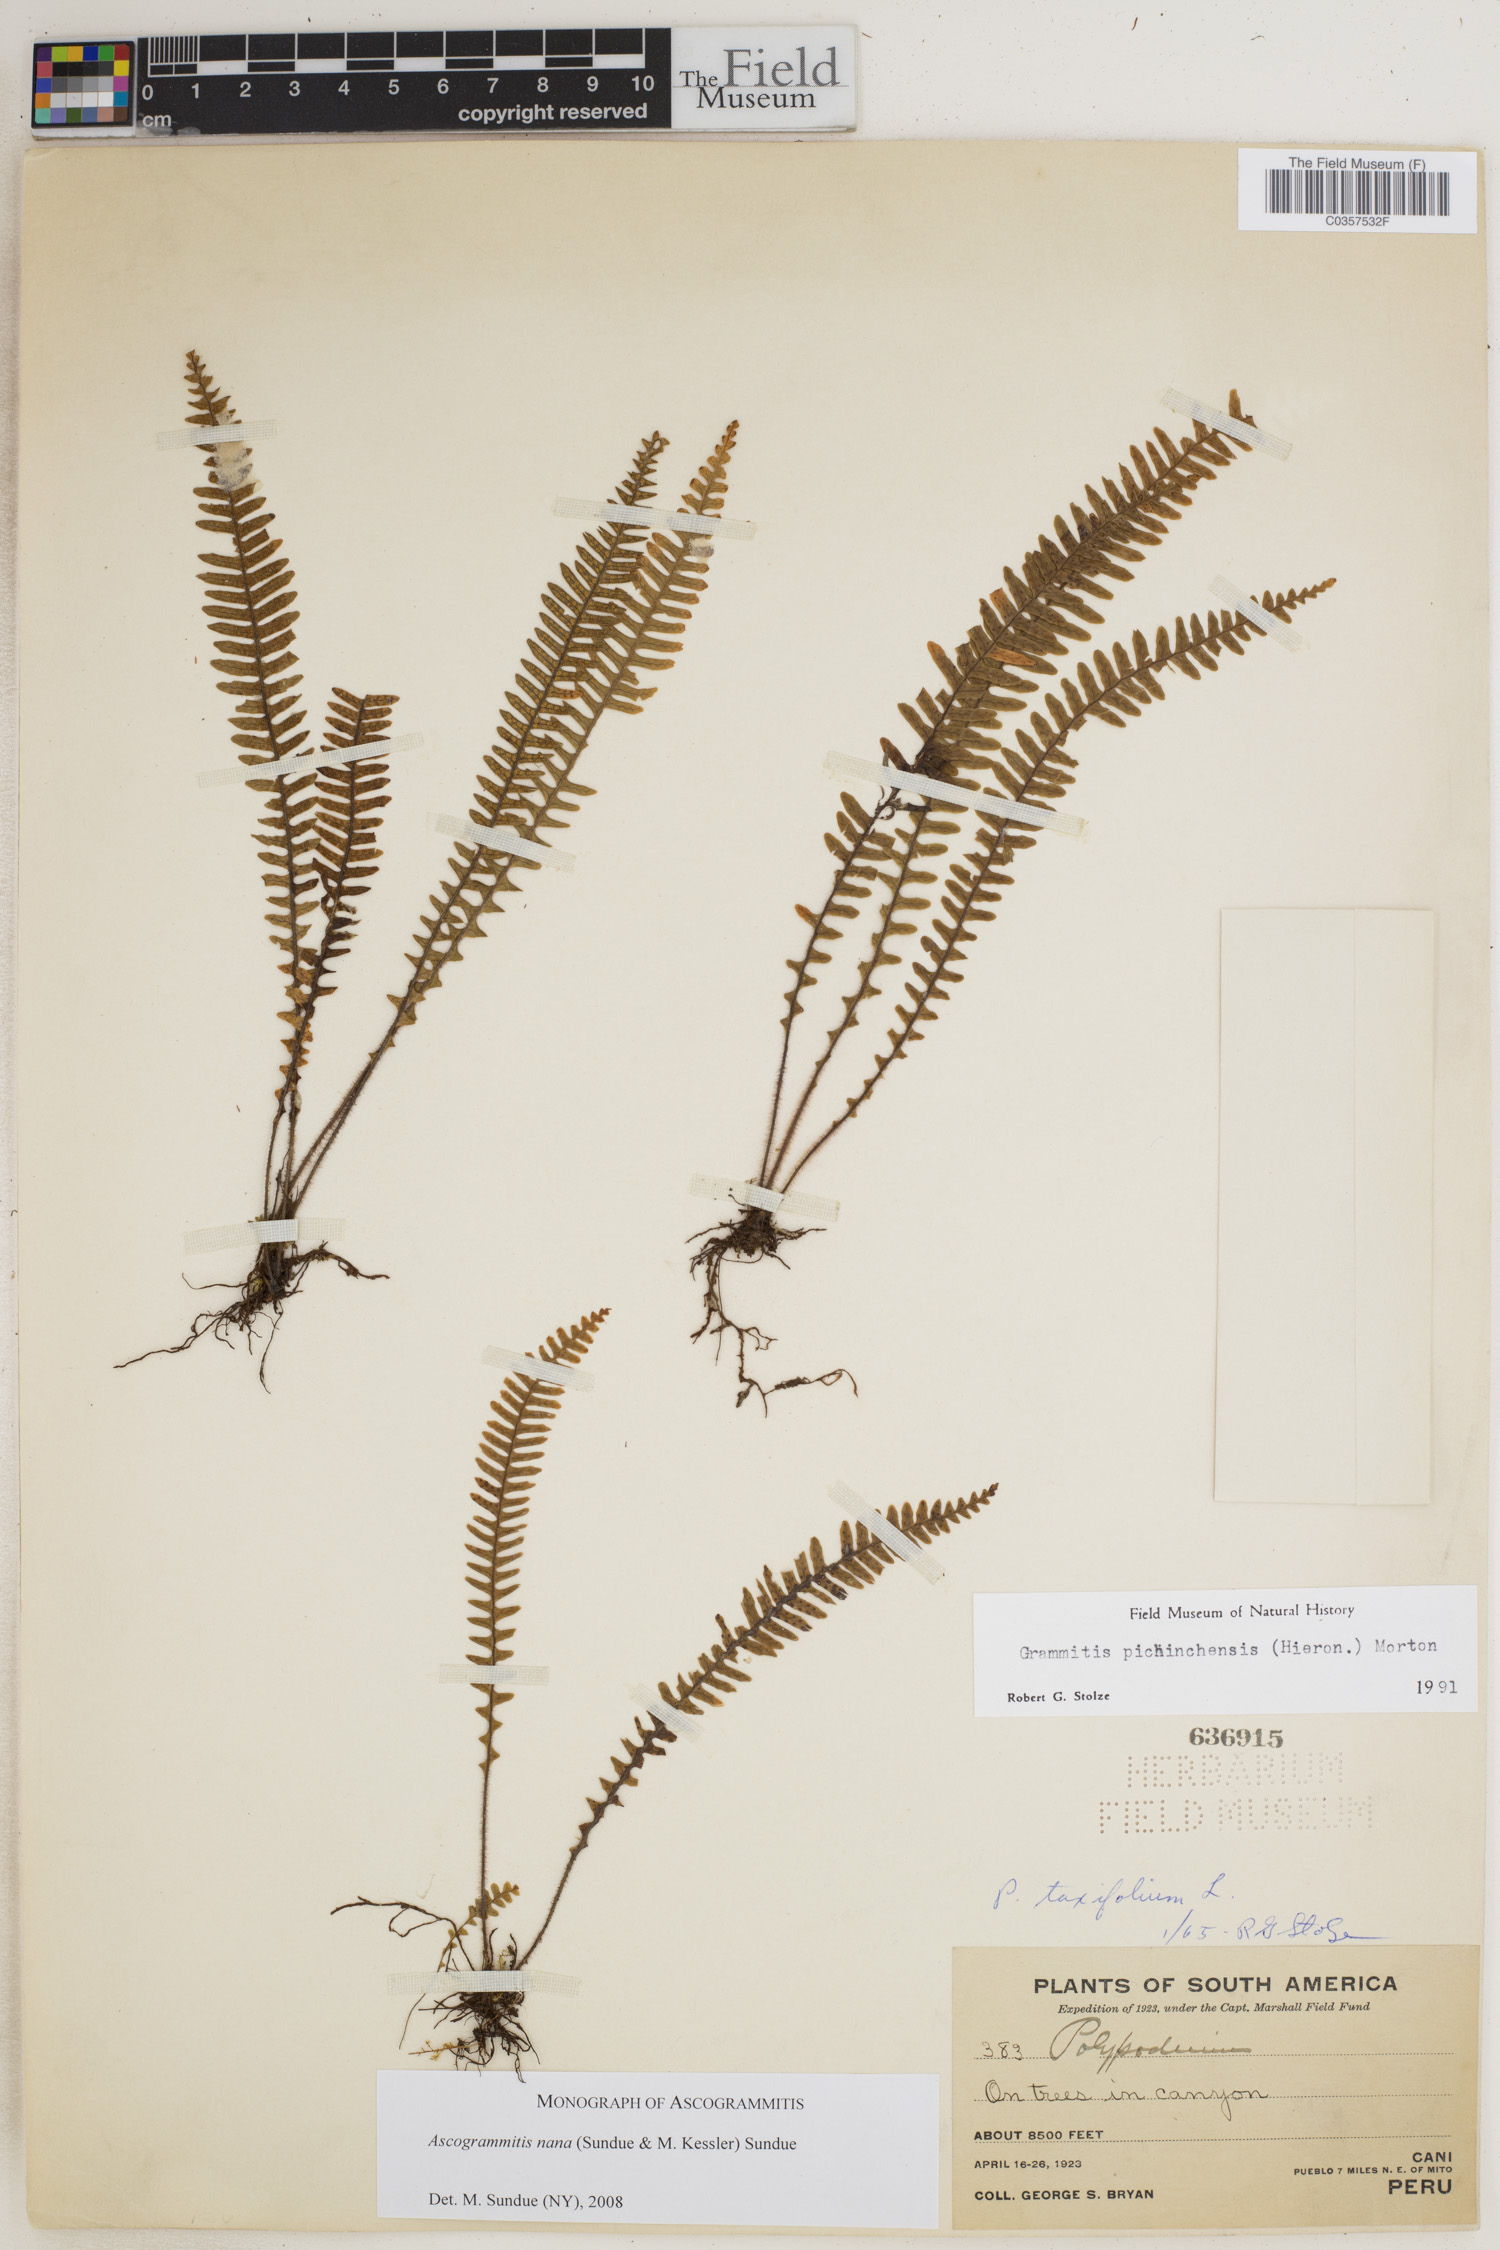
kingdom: Plantae
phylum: Tracheophyta
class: Polypodiopsida
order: Polypodiales
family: Polypodiaceae
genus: Ascogrammitis
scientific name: Ascogrammitis nana
